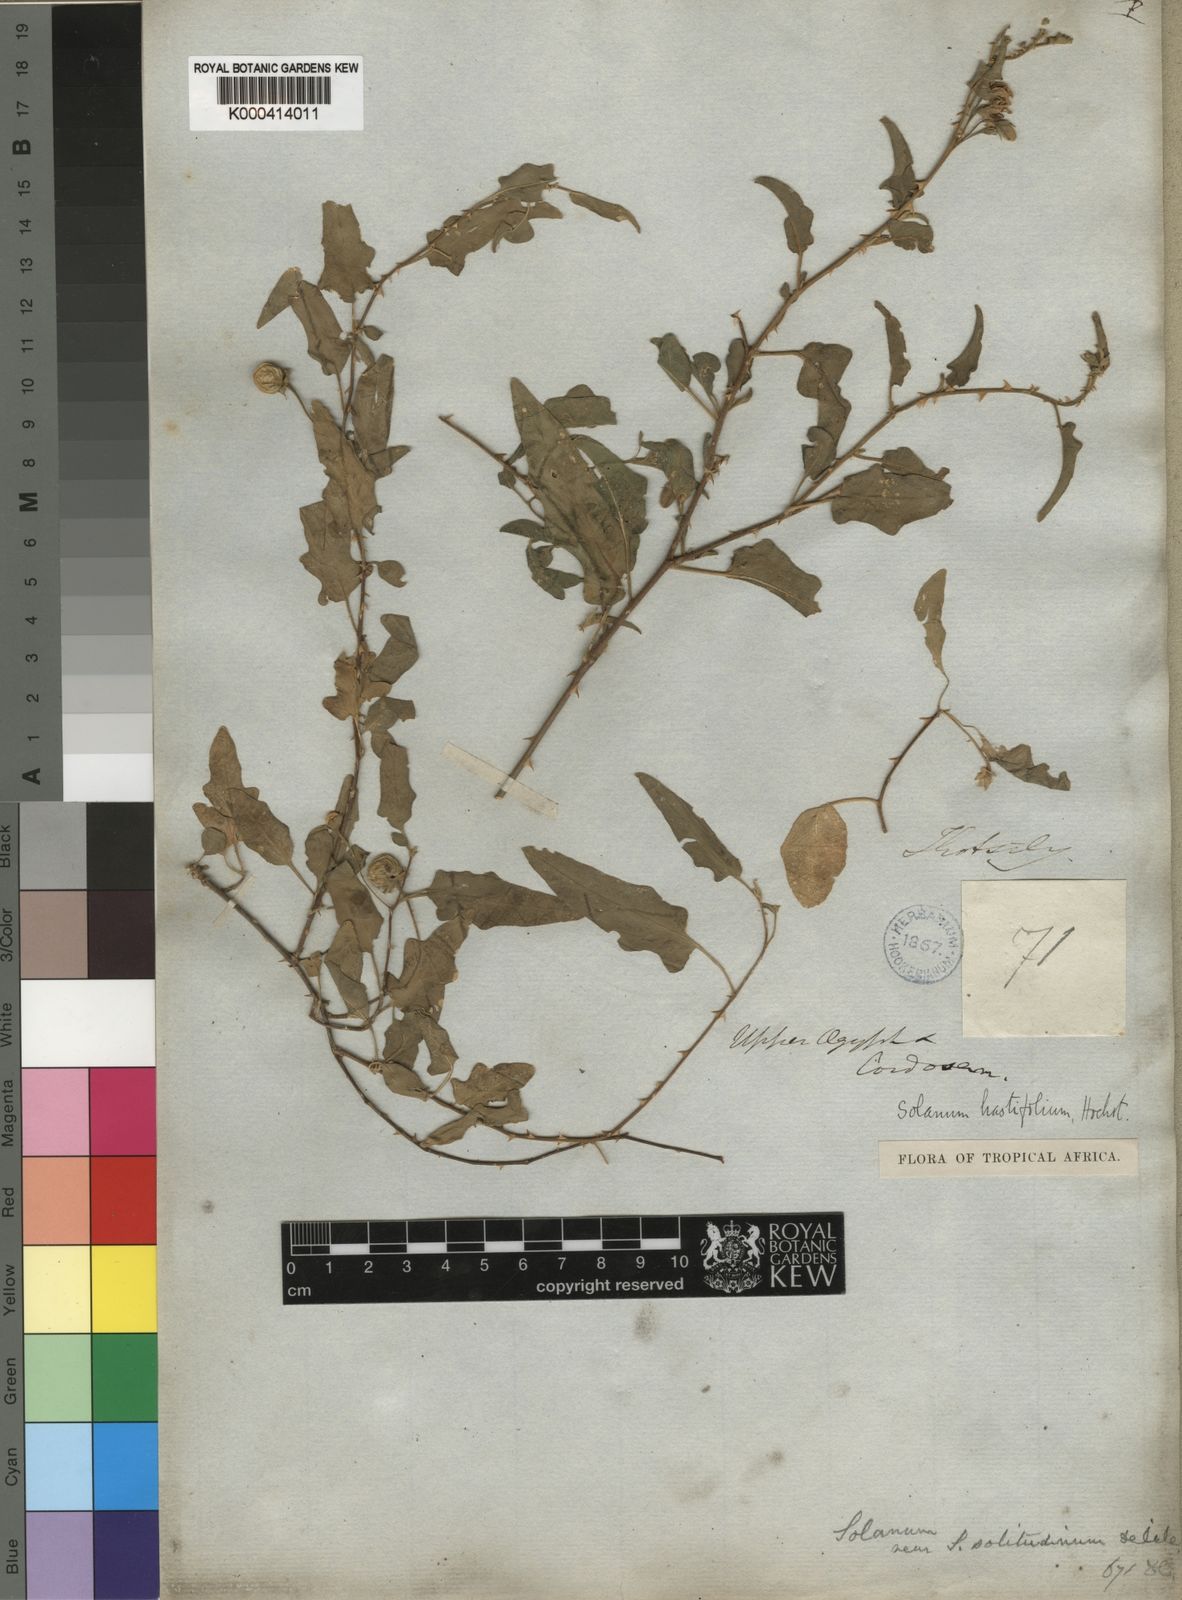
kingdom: Plantae
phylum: Tracheophyta
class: Magnoliopsida
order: Solanales
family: Solanaceae
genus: Solanum
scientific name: Solanum hastifolium
